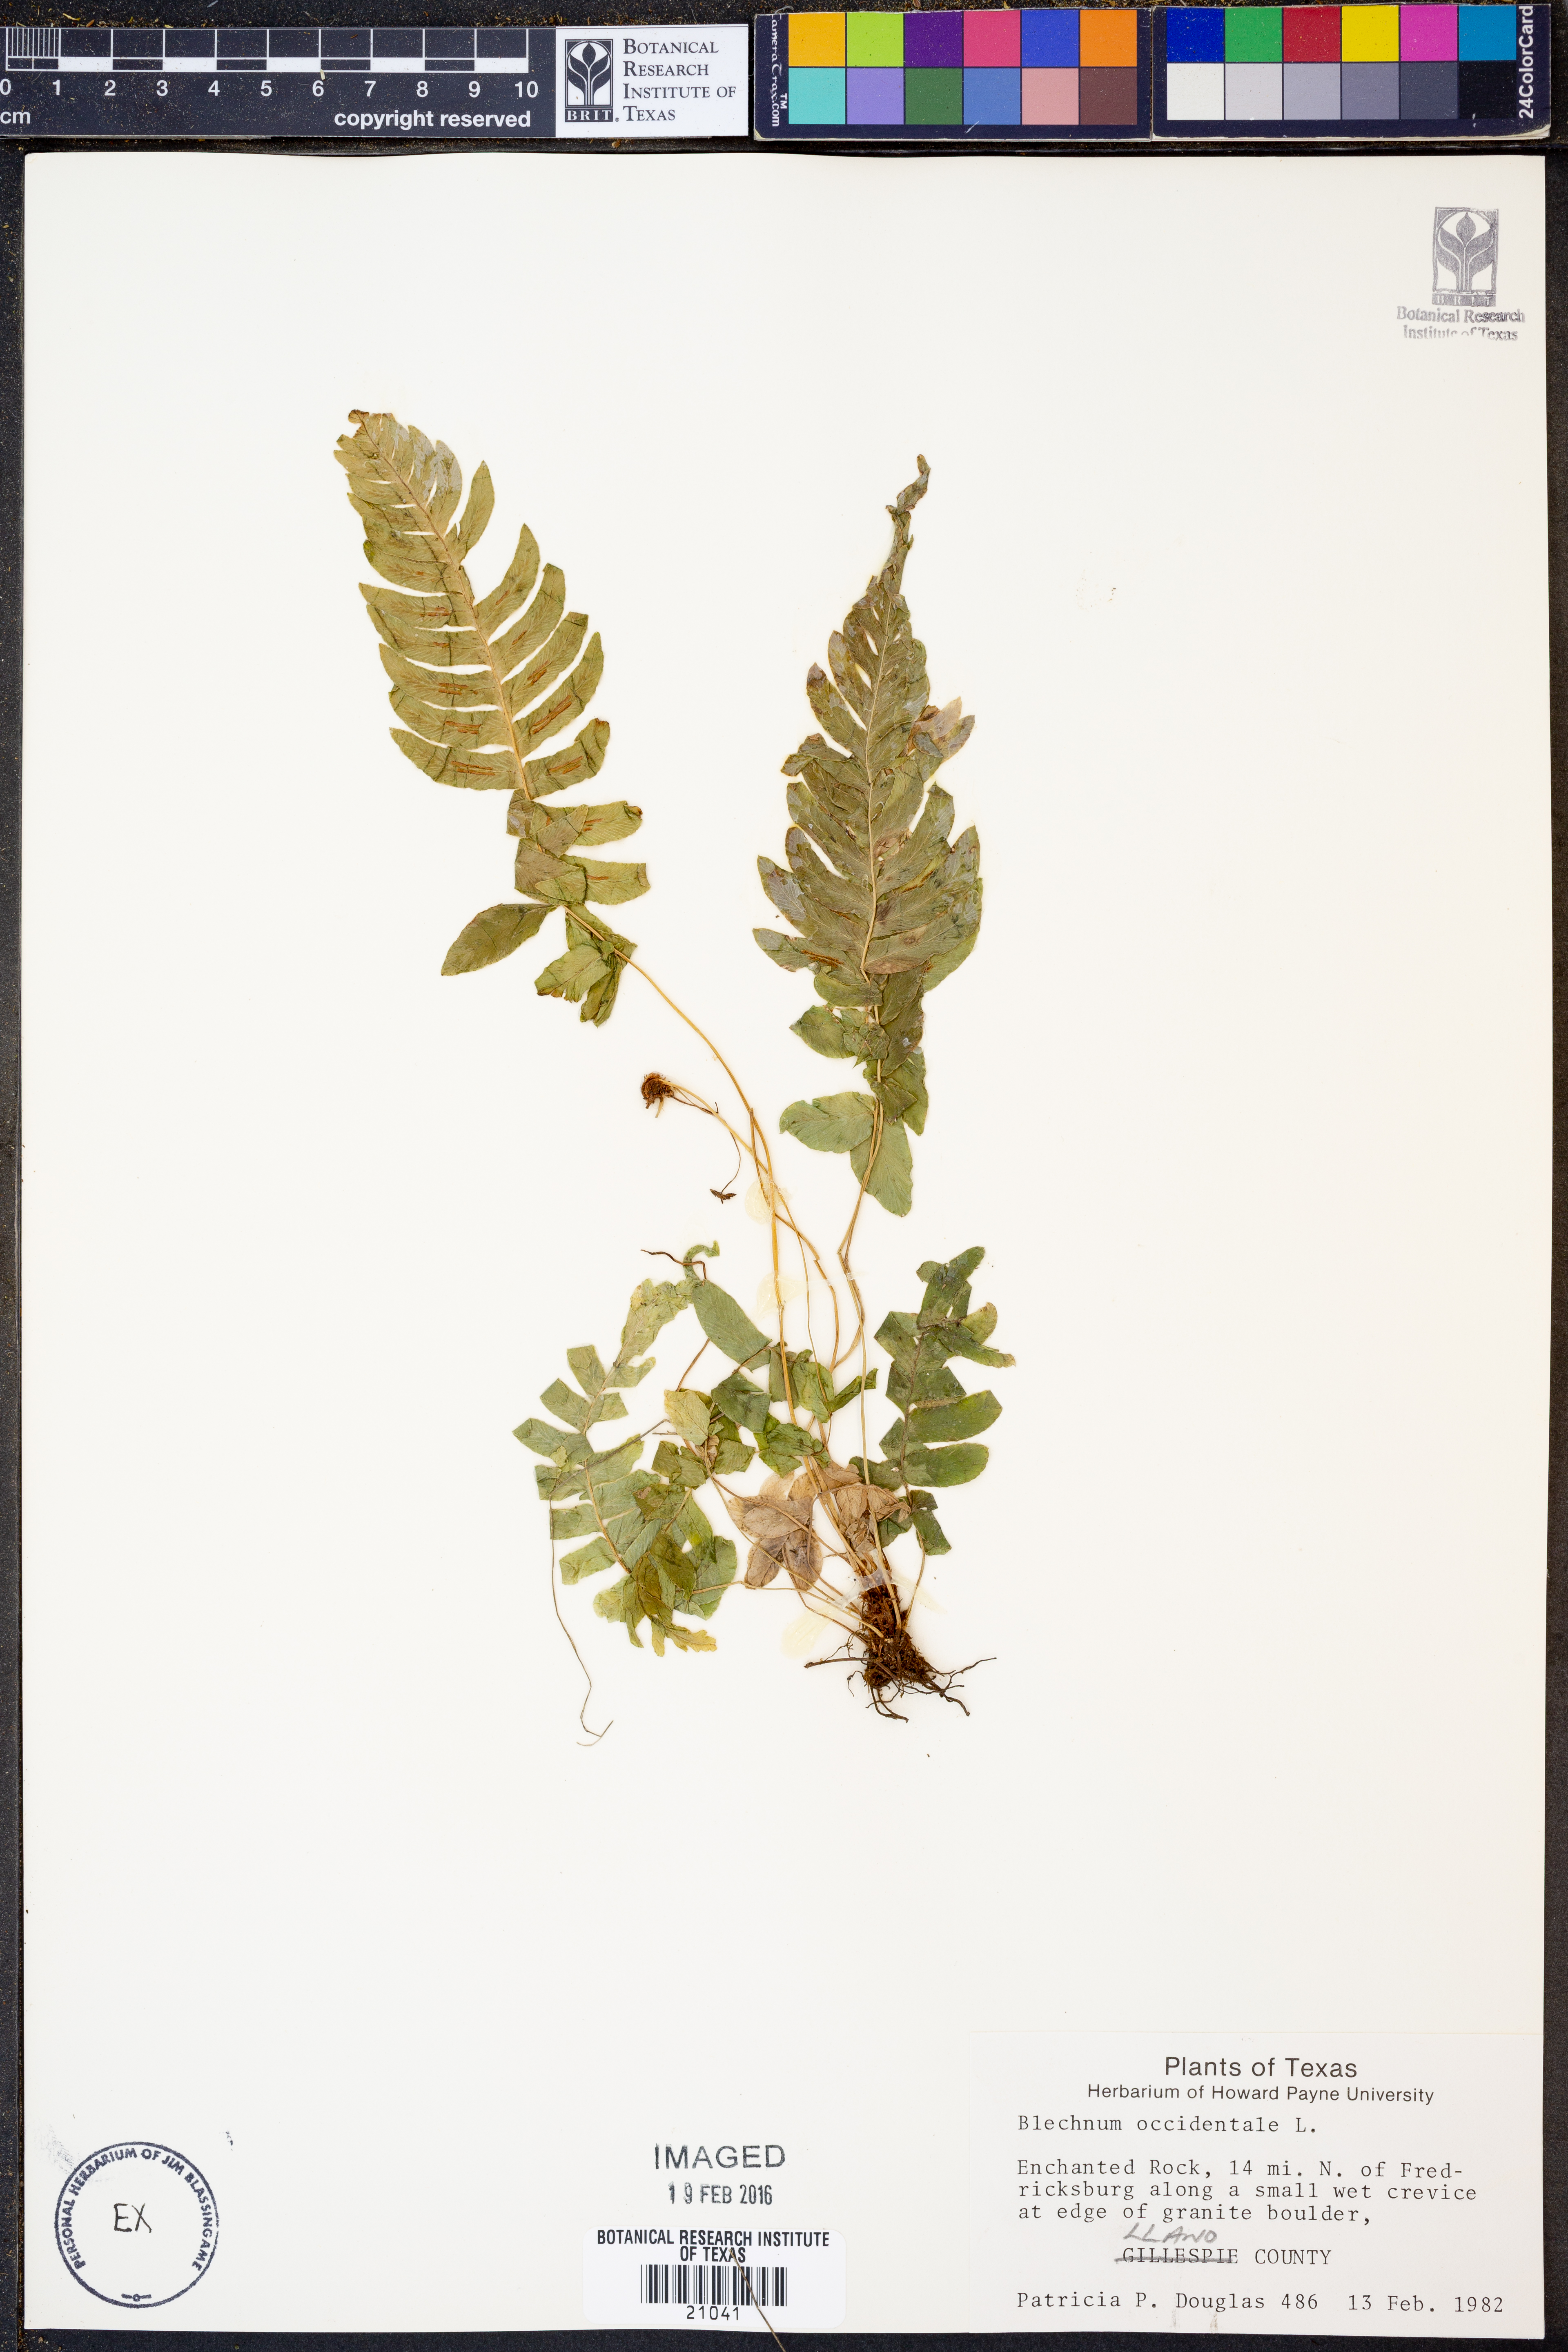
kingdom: Plantae
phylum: Tracheophyta
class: Polypodiopsida
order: Polypodiales
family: Blechnaceae
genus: Blechnum
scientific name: Blechnum occidentale
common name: Hammock fern
